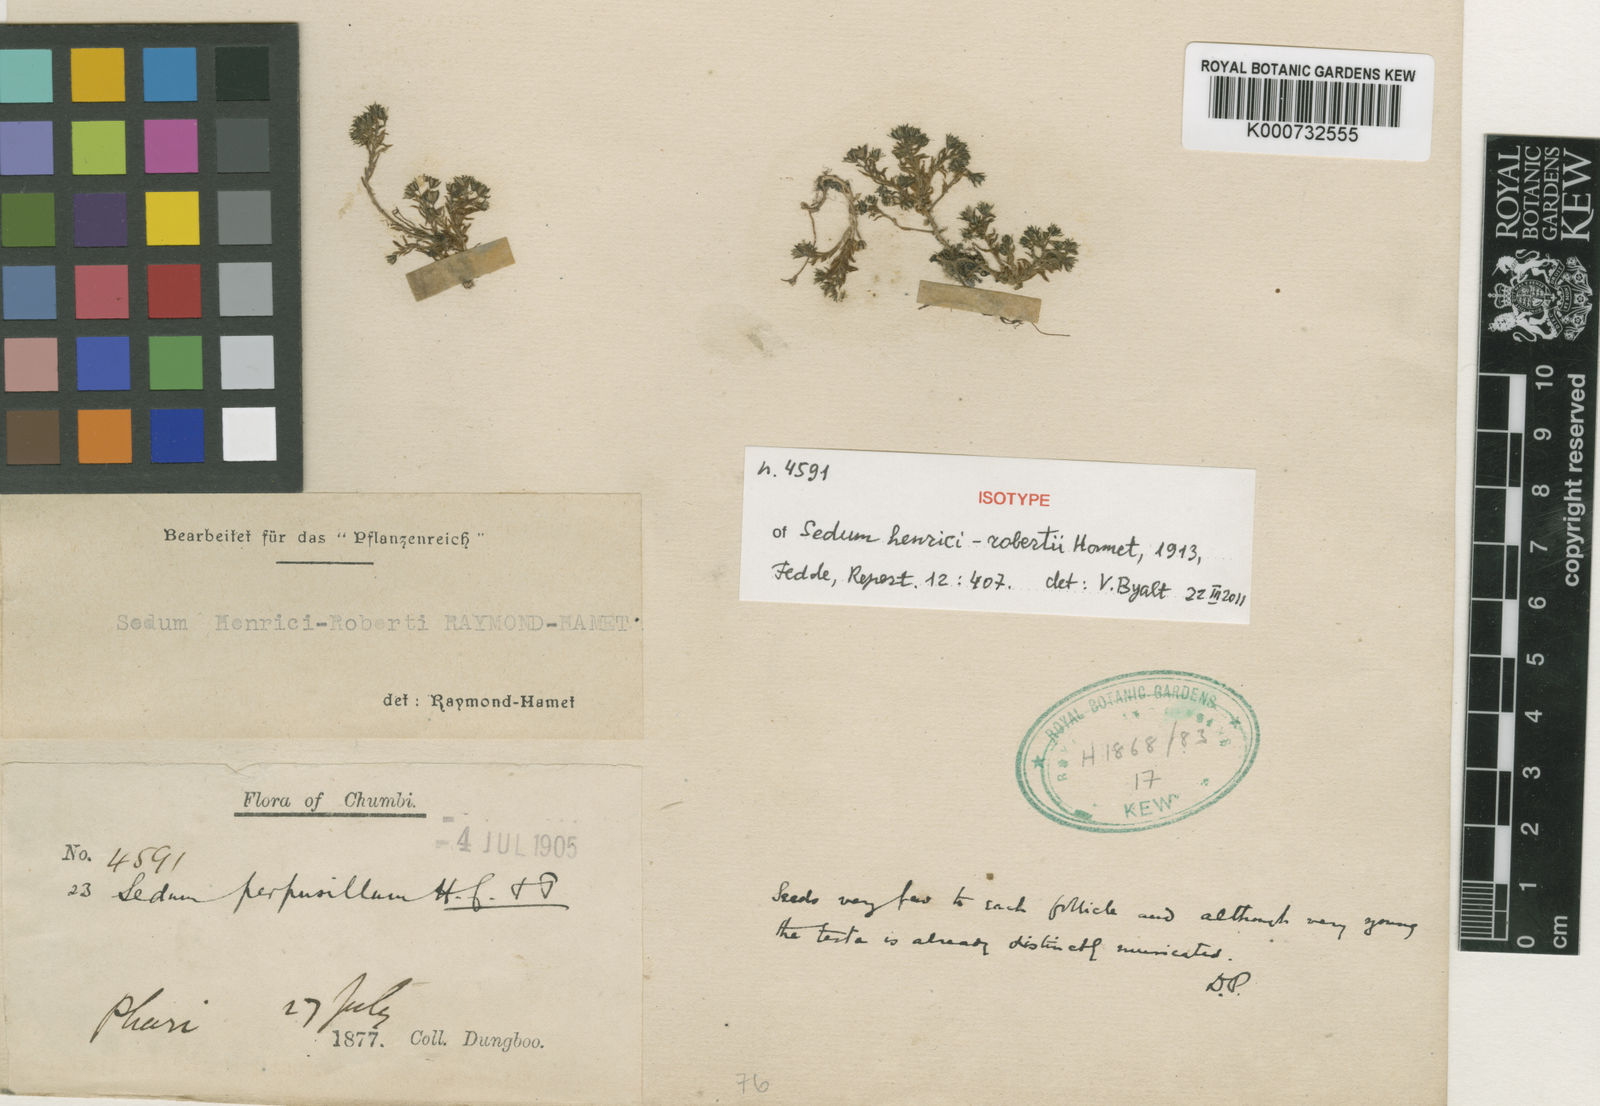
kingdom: Plantae
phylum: Tracheophyta
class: Magnoliopsida
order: Saxifragales
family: Crassulaceae
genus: Sedum
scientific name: Sedum henrici-roberti
